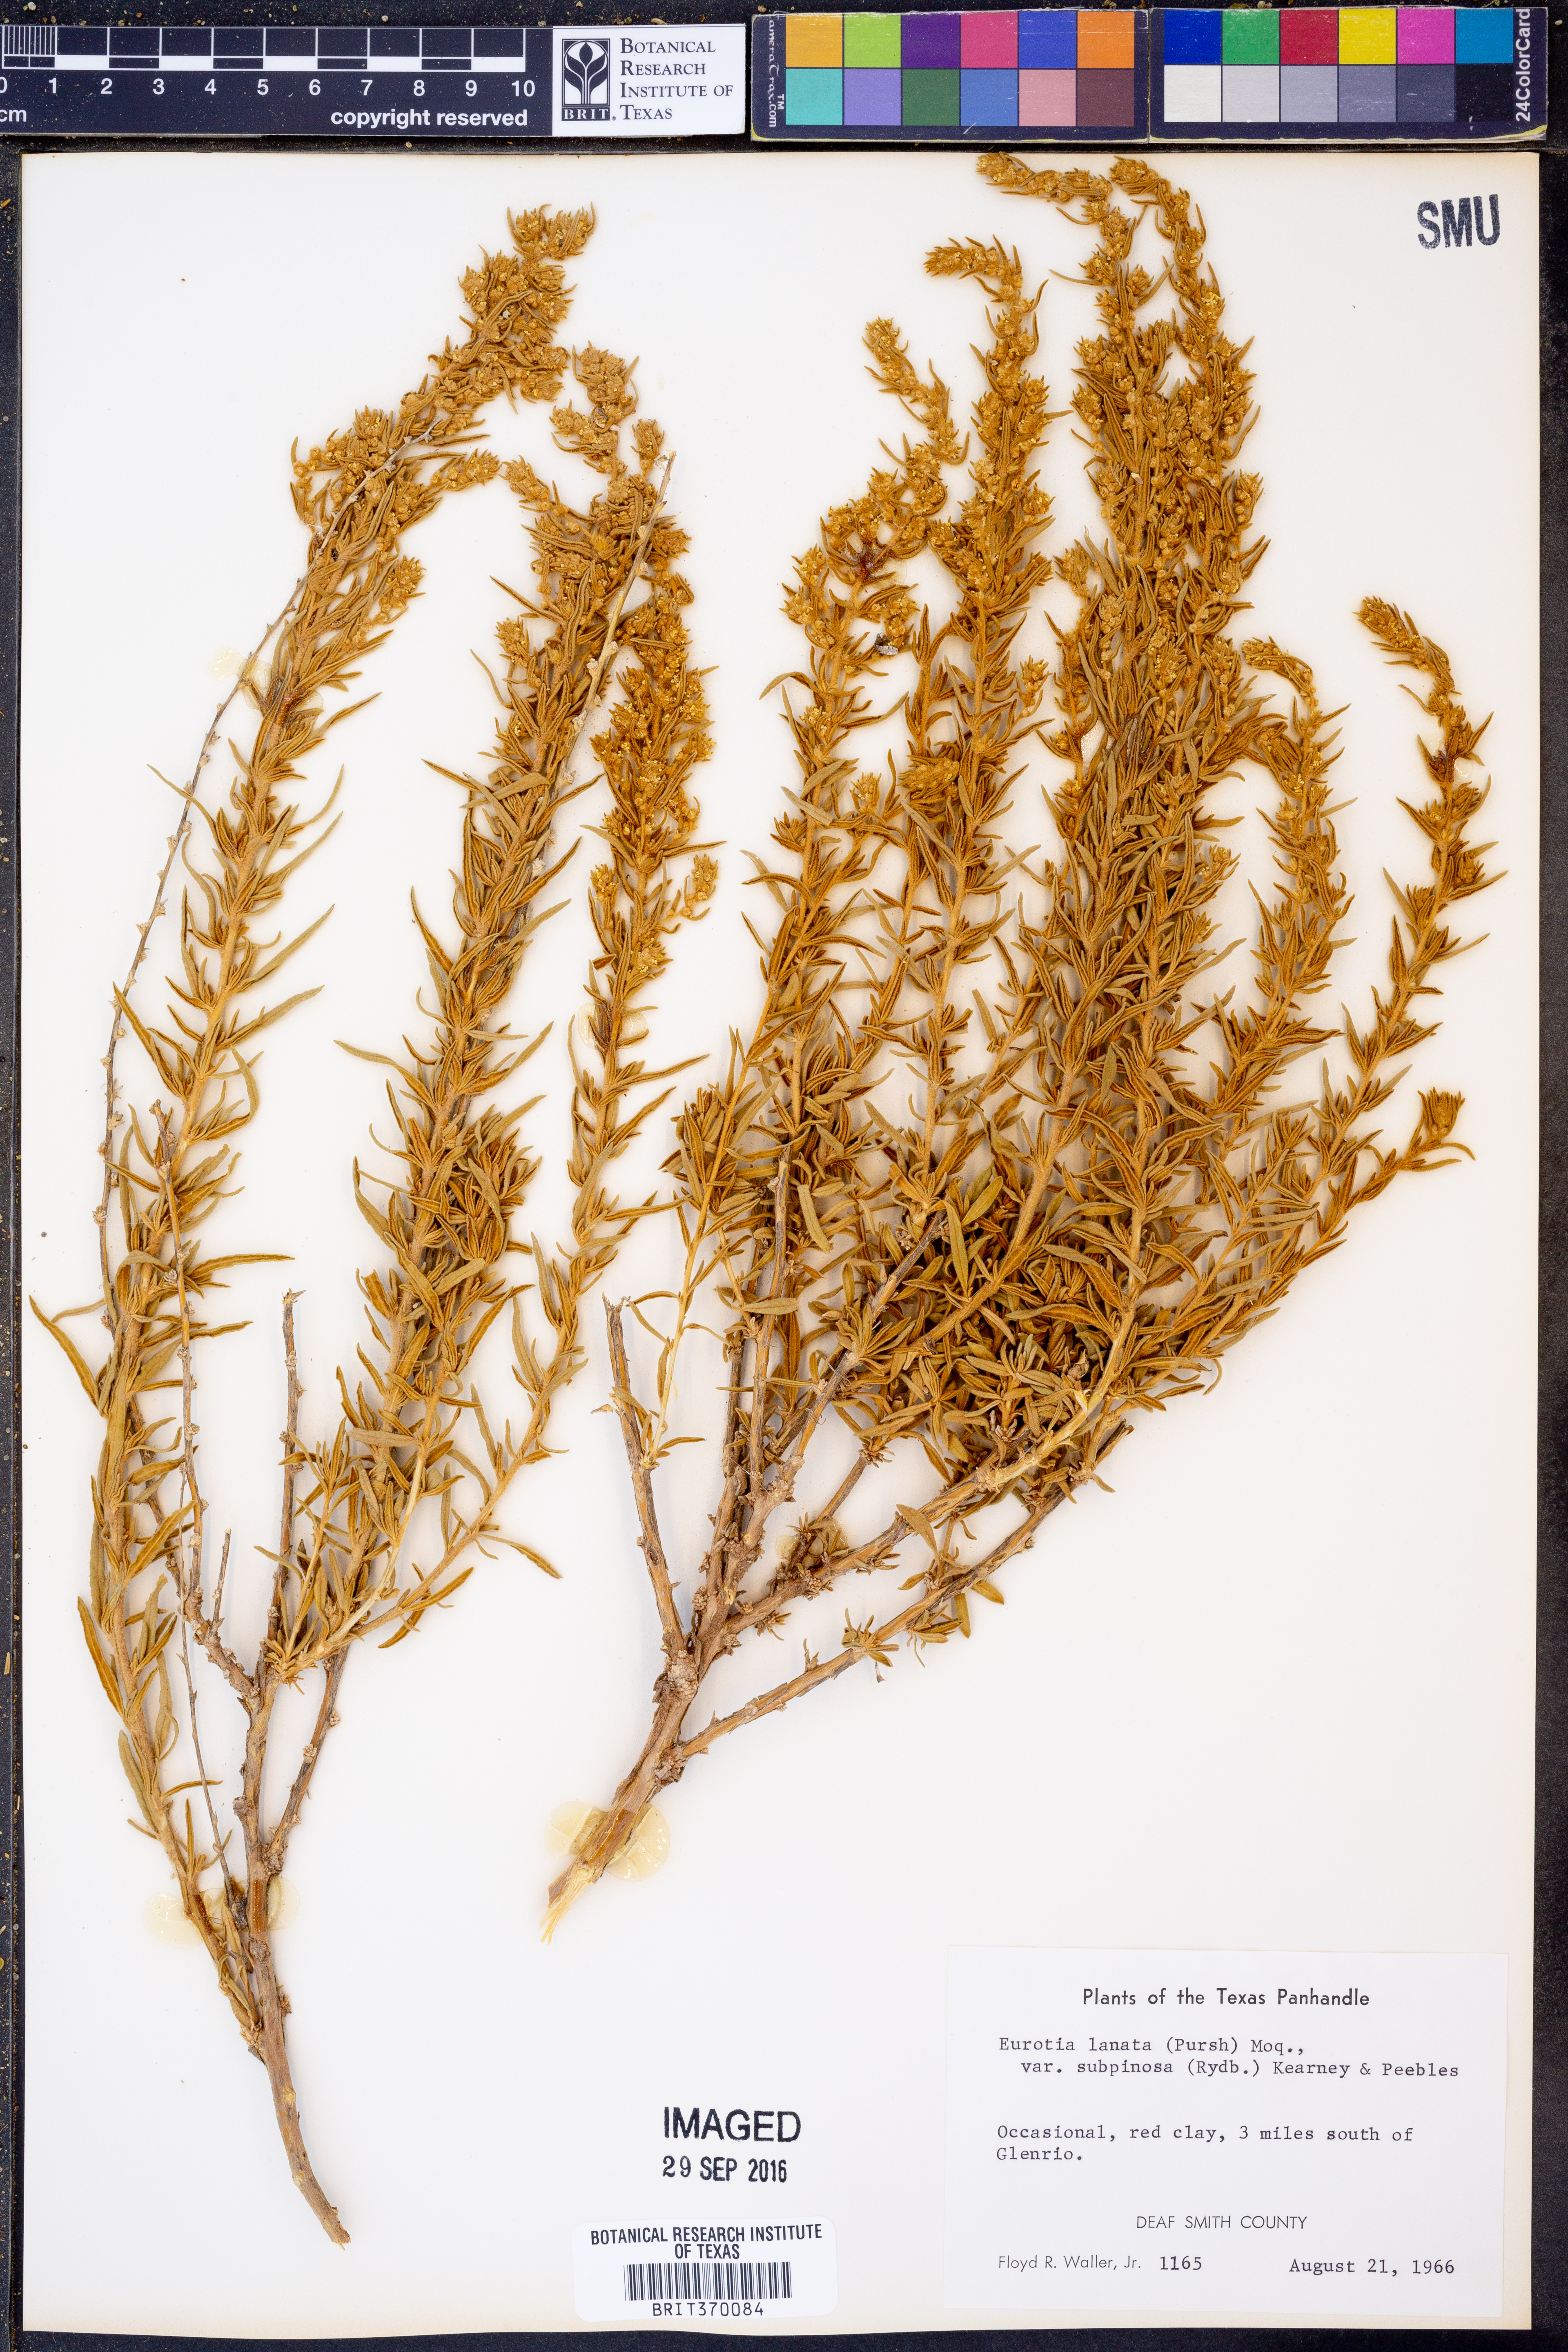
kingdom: Plantae
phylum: Tracheophyta
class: Magnoliopsida
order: Caryophyllales
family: Amaranthaceae
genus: Krascheninnikovia
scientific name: Krascheninnikovia lanata
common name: Winterfat
